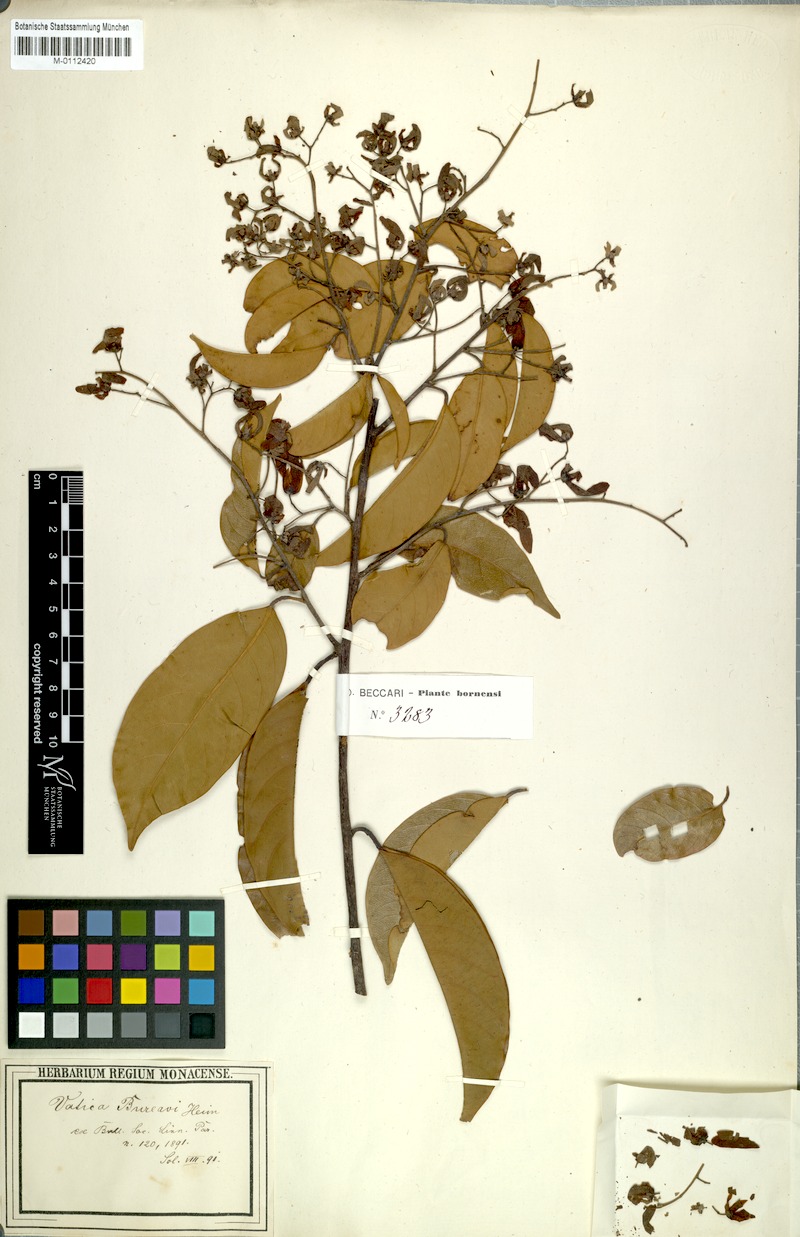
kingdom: Plantae
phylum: Tracheophyta
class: Magnoliopsida
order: Malvales
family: Dipterocarpaceae
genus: Vatica
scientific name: Vatica mangachapoi
